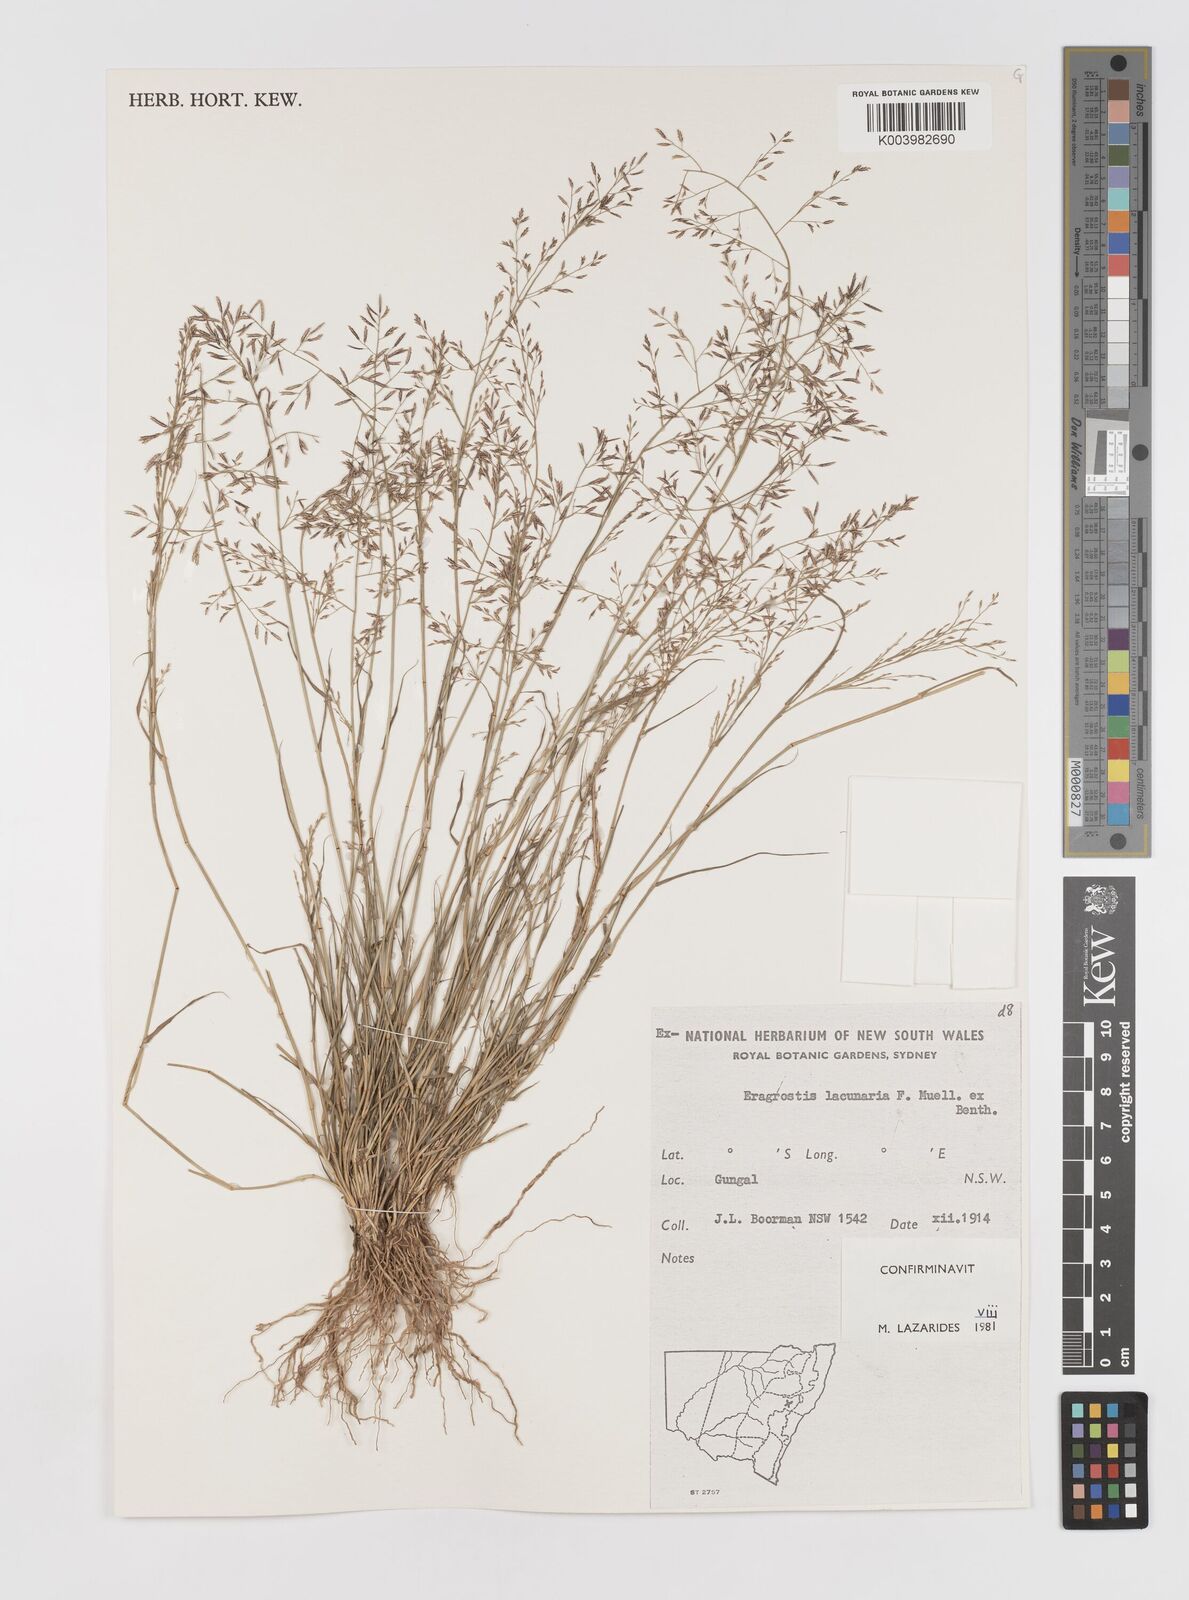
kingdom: Plantae
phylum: Tracheophyta
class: Liliopsida
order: Poales
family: Poaceae
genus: Eragrostis
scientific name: Eragrostis lacunaria
